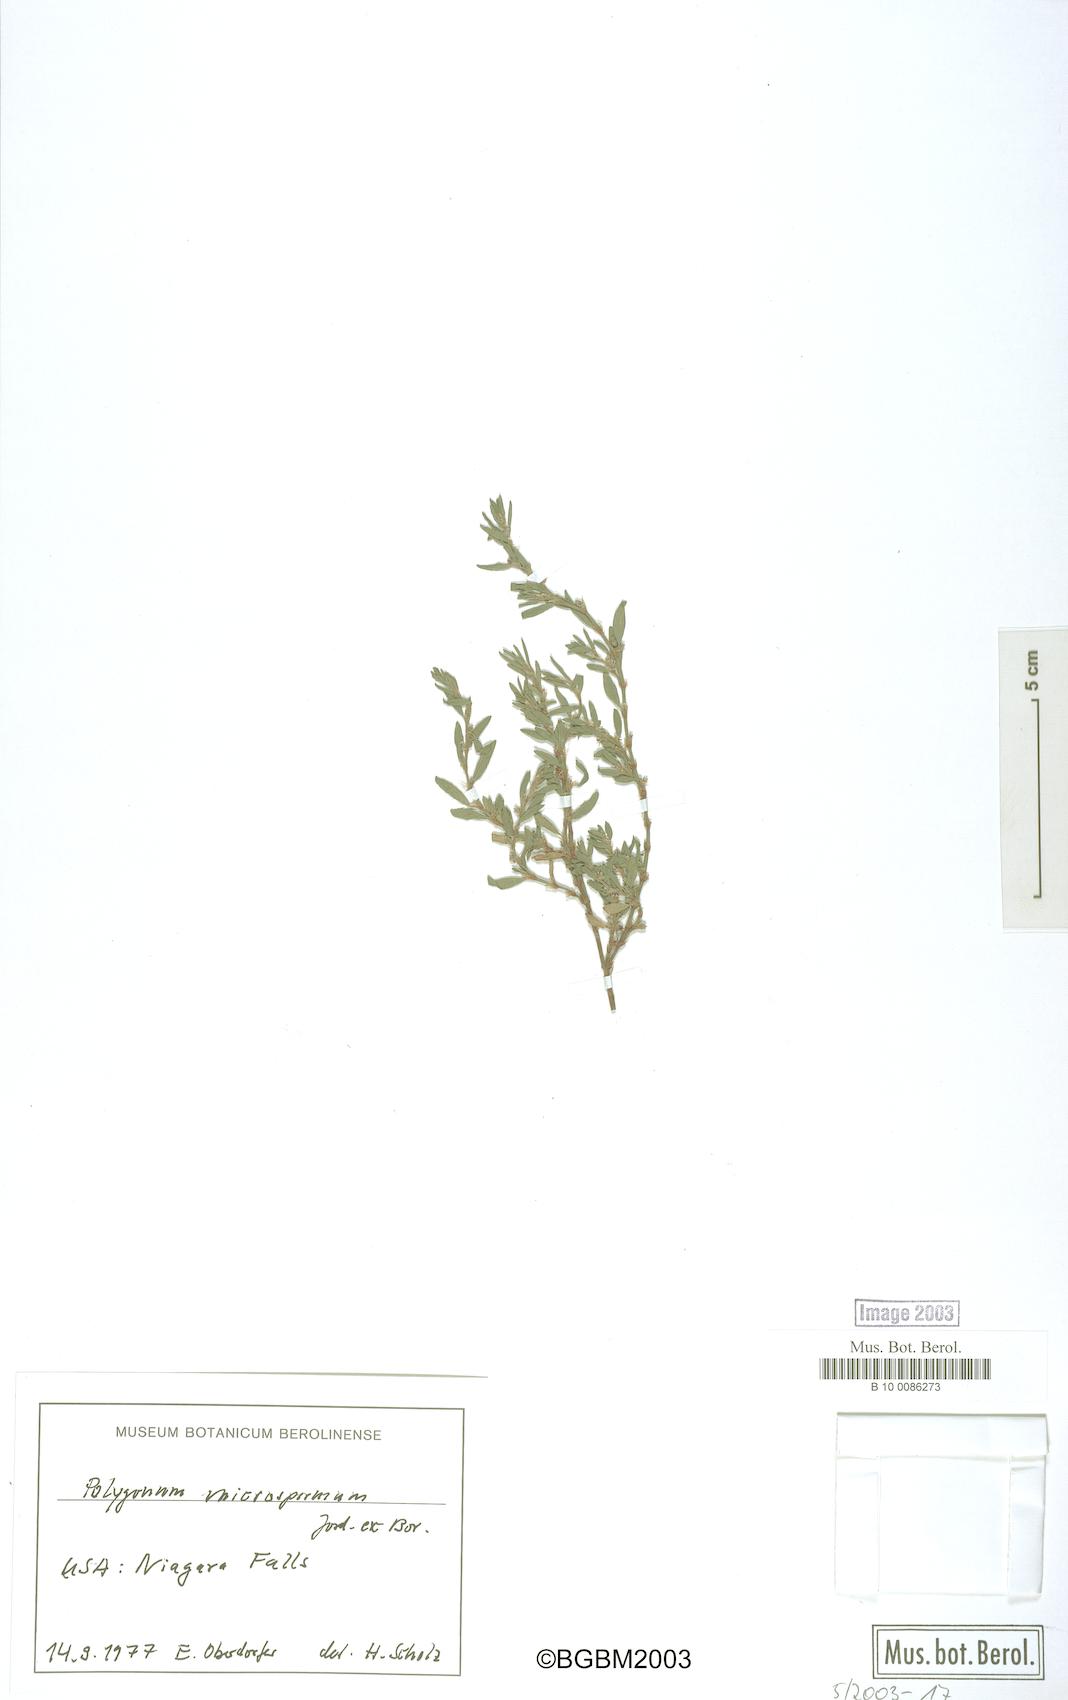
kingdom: Plantae
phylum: Tracheophyta
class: Magnoliopsida
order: Caryophyllales
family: Polygonaceae
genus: Polygonum
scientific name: Polygonum
